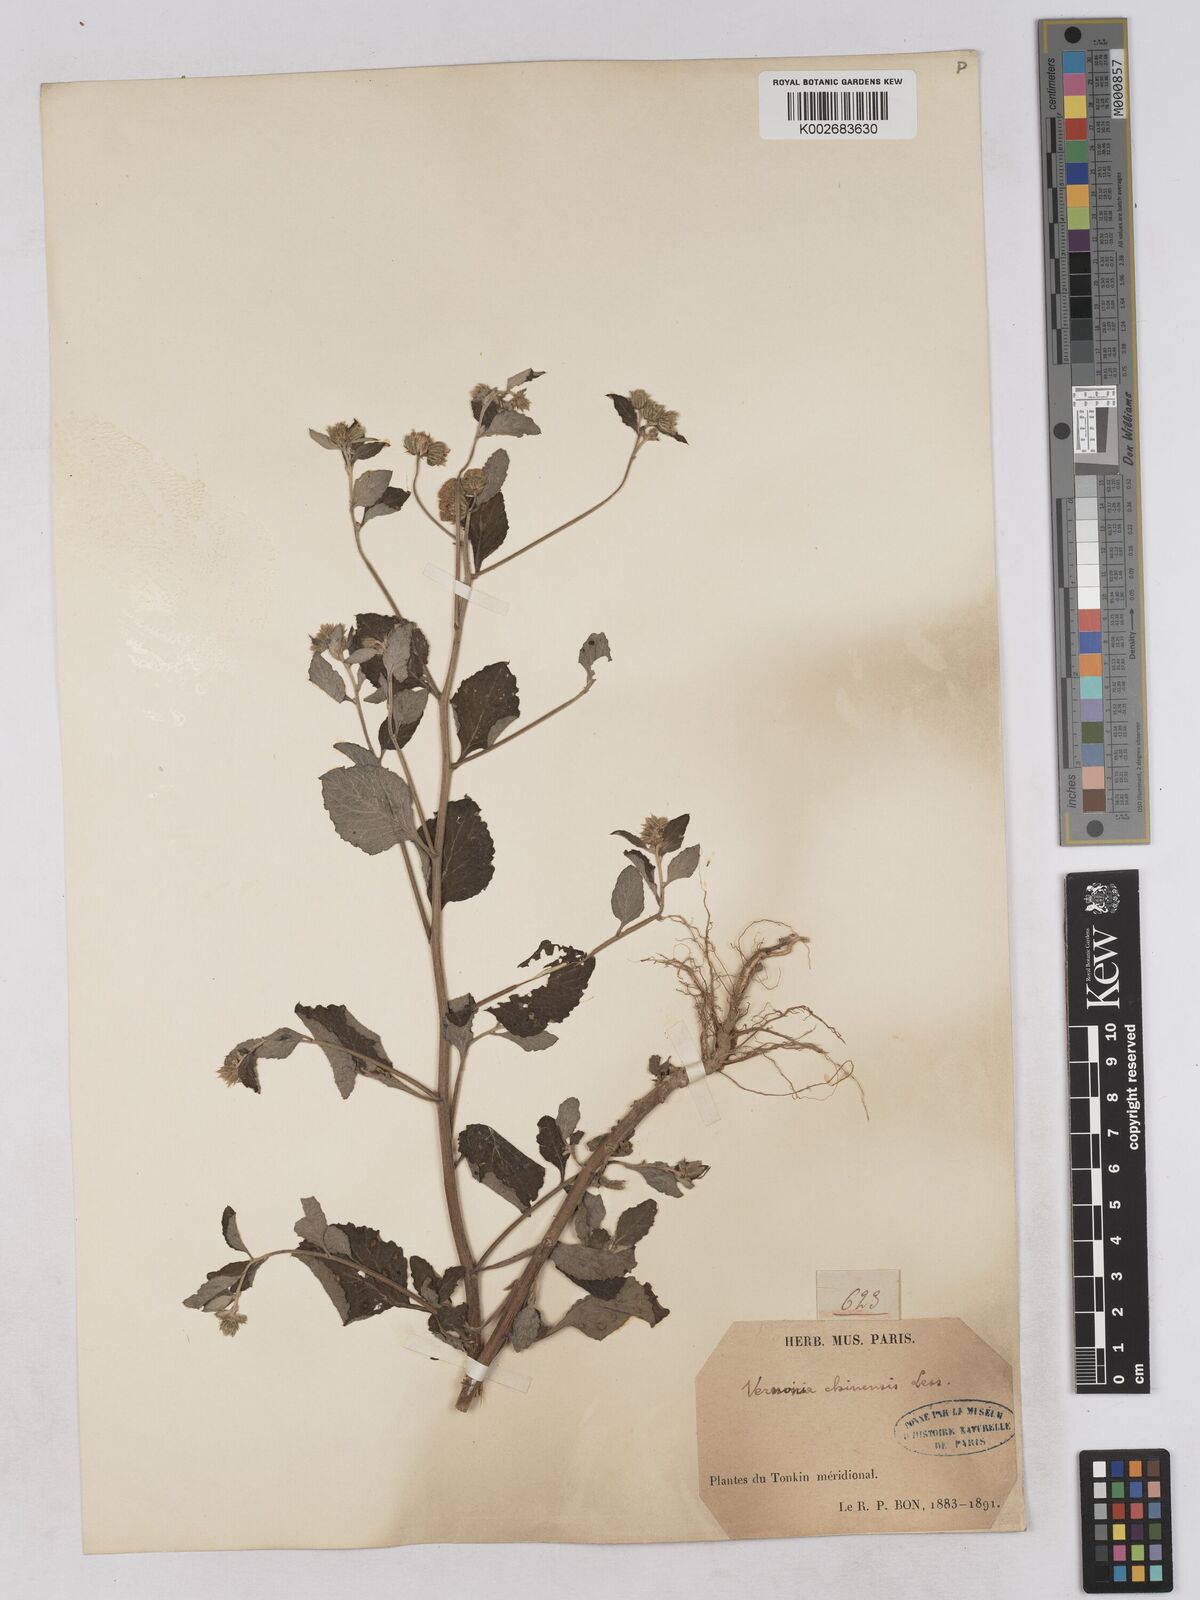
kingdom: Plantae
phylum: Tracheophyta
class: Magnoliopsida
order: Asterales
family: Asteraceae
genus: Cyanthillium
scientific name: Cyanthillium patulum
